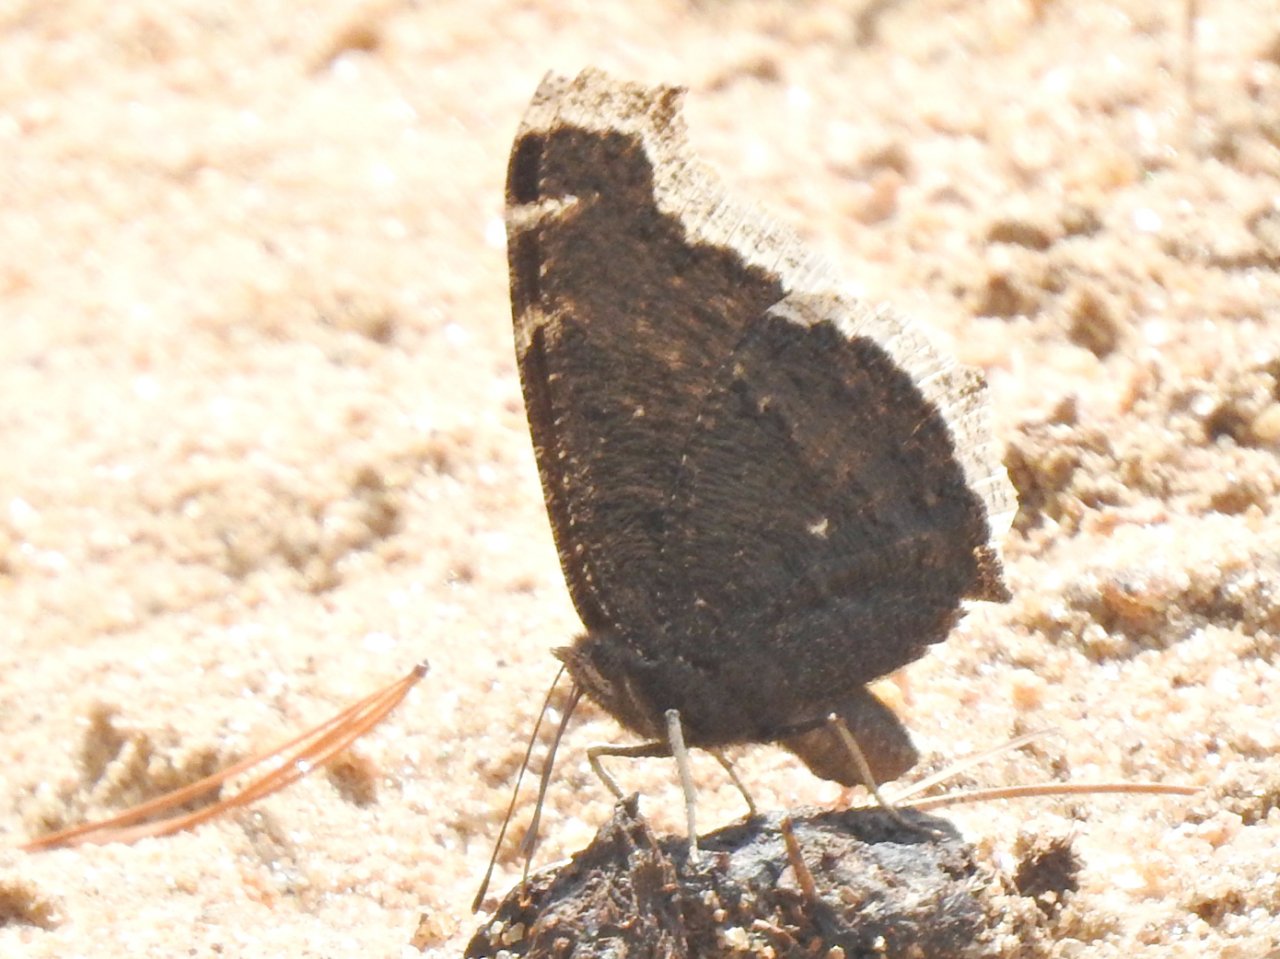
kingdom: Animalia
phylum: Arthropoda
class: Insecta
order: Lepidoptera
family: Nymphalidae
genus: Nymphalis
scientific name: Nymphalis antiopa
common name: Mourning Cloak
